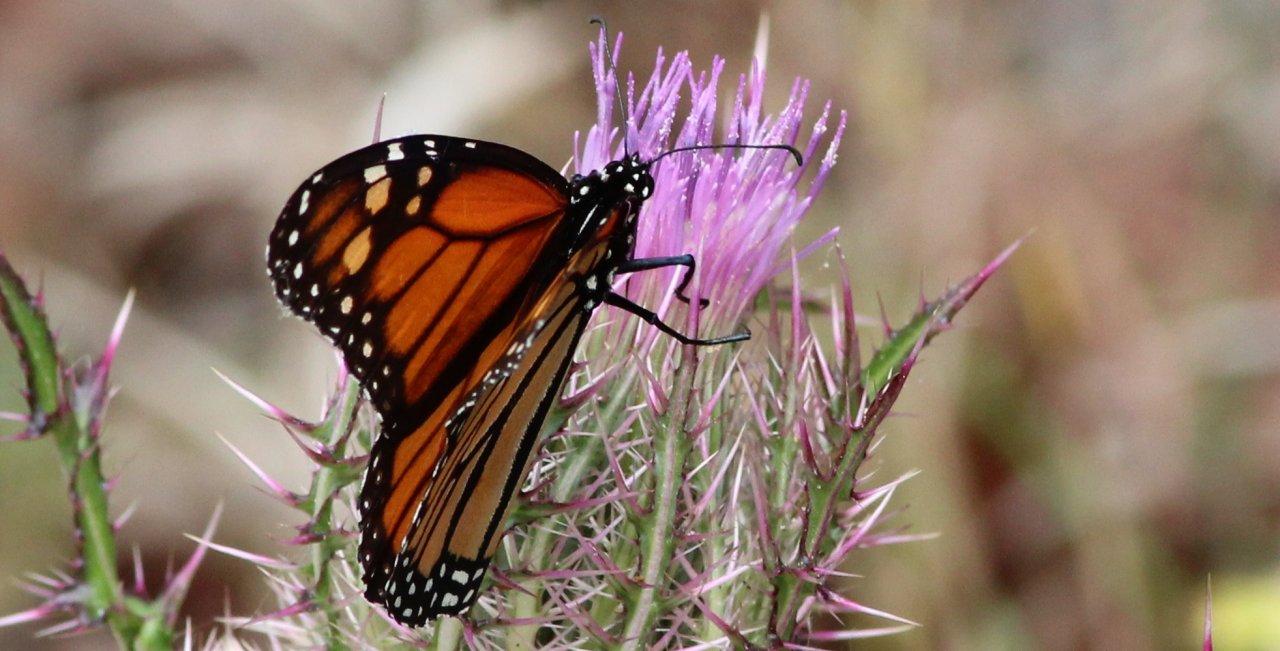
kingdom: Animalia
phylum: Arthropoda
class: Insecta
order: Lepidoptera
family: Nymphalidae
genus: Danaus
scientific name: Danaus plexippus
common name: Monarch
